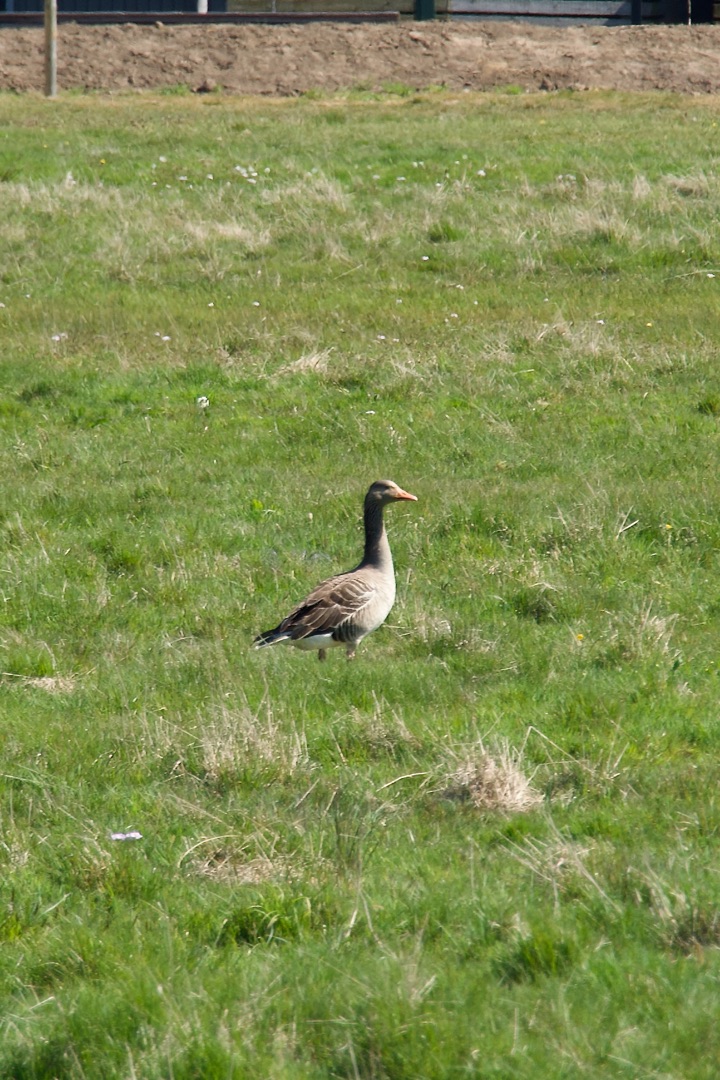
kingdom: Animalia
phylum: Chordata
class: Aves
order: Anseriformes
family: Anatidae
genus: Anser
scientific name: Anser anser
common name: Grågås
